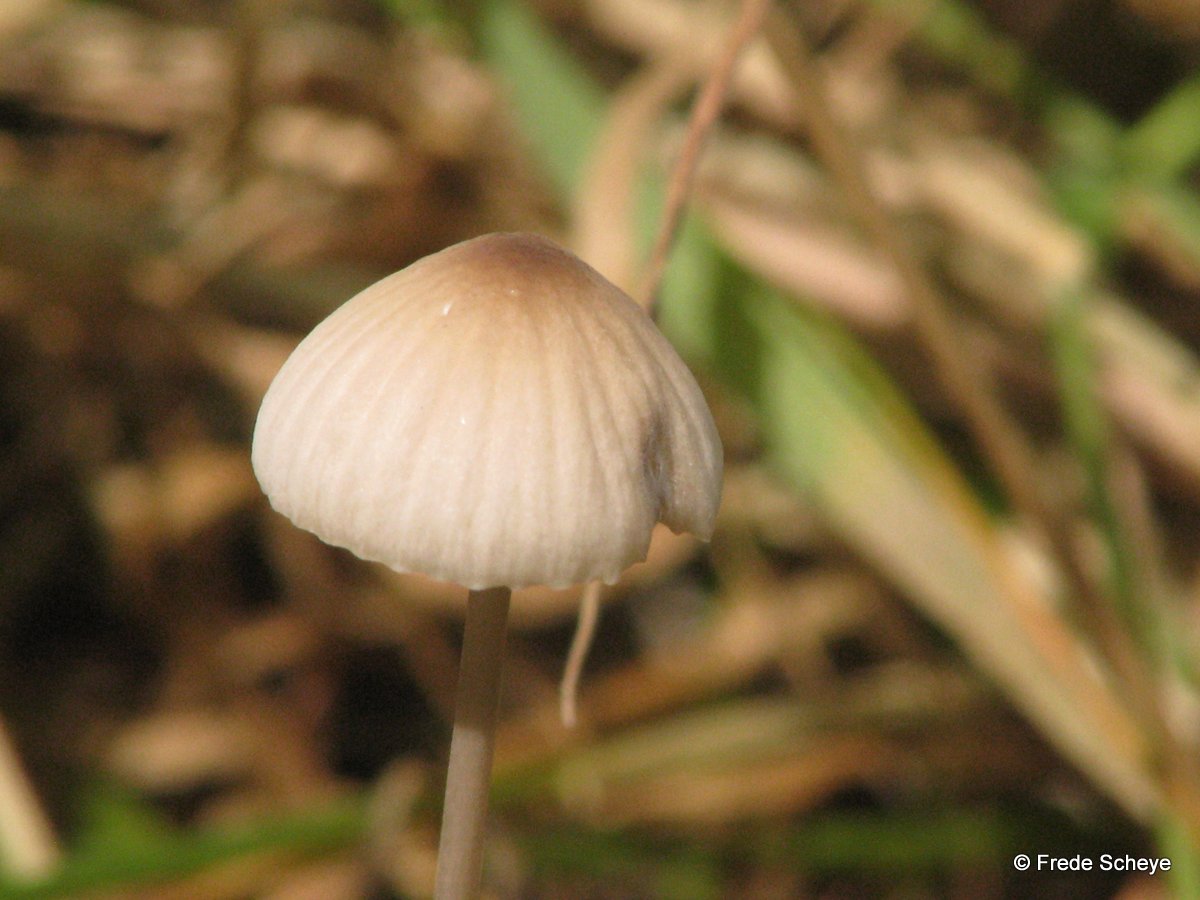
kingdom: Fungi
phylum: Basidiomycota
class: Agaricomycetes
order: Agaricales
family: Mycenaceae
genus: Mycena
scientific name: Mycena galopus
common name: hvidmælket huesvamp
